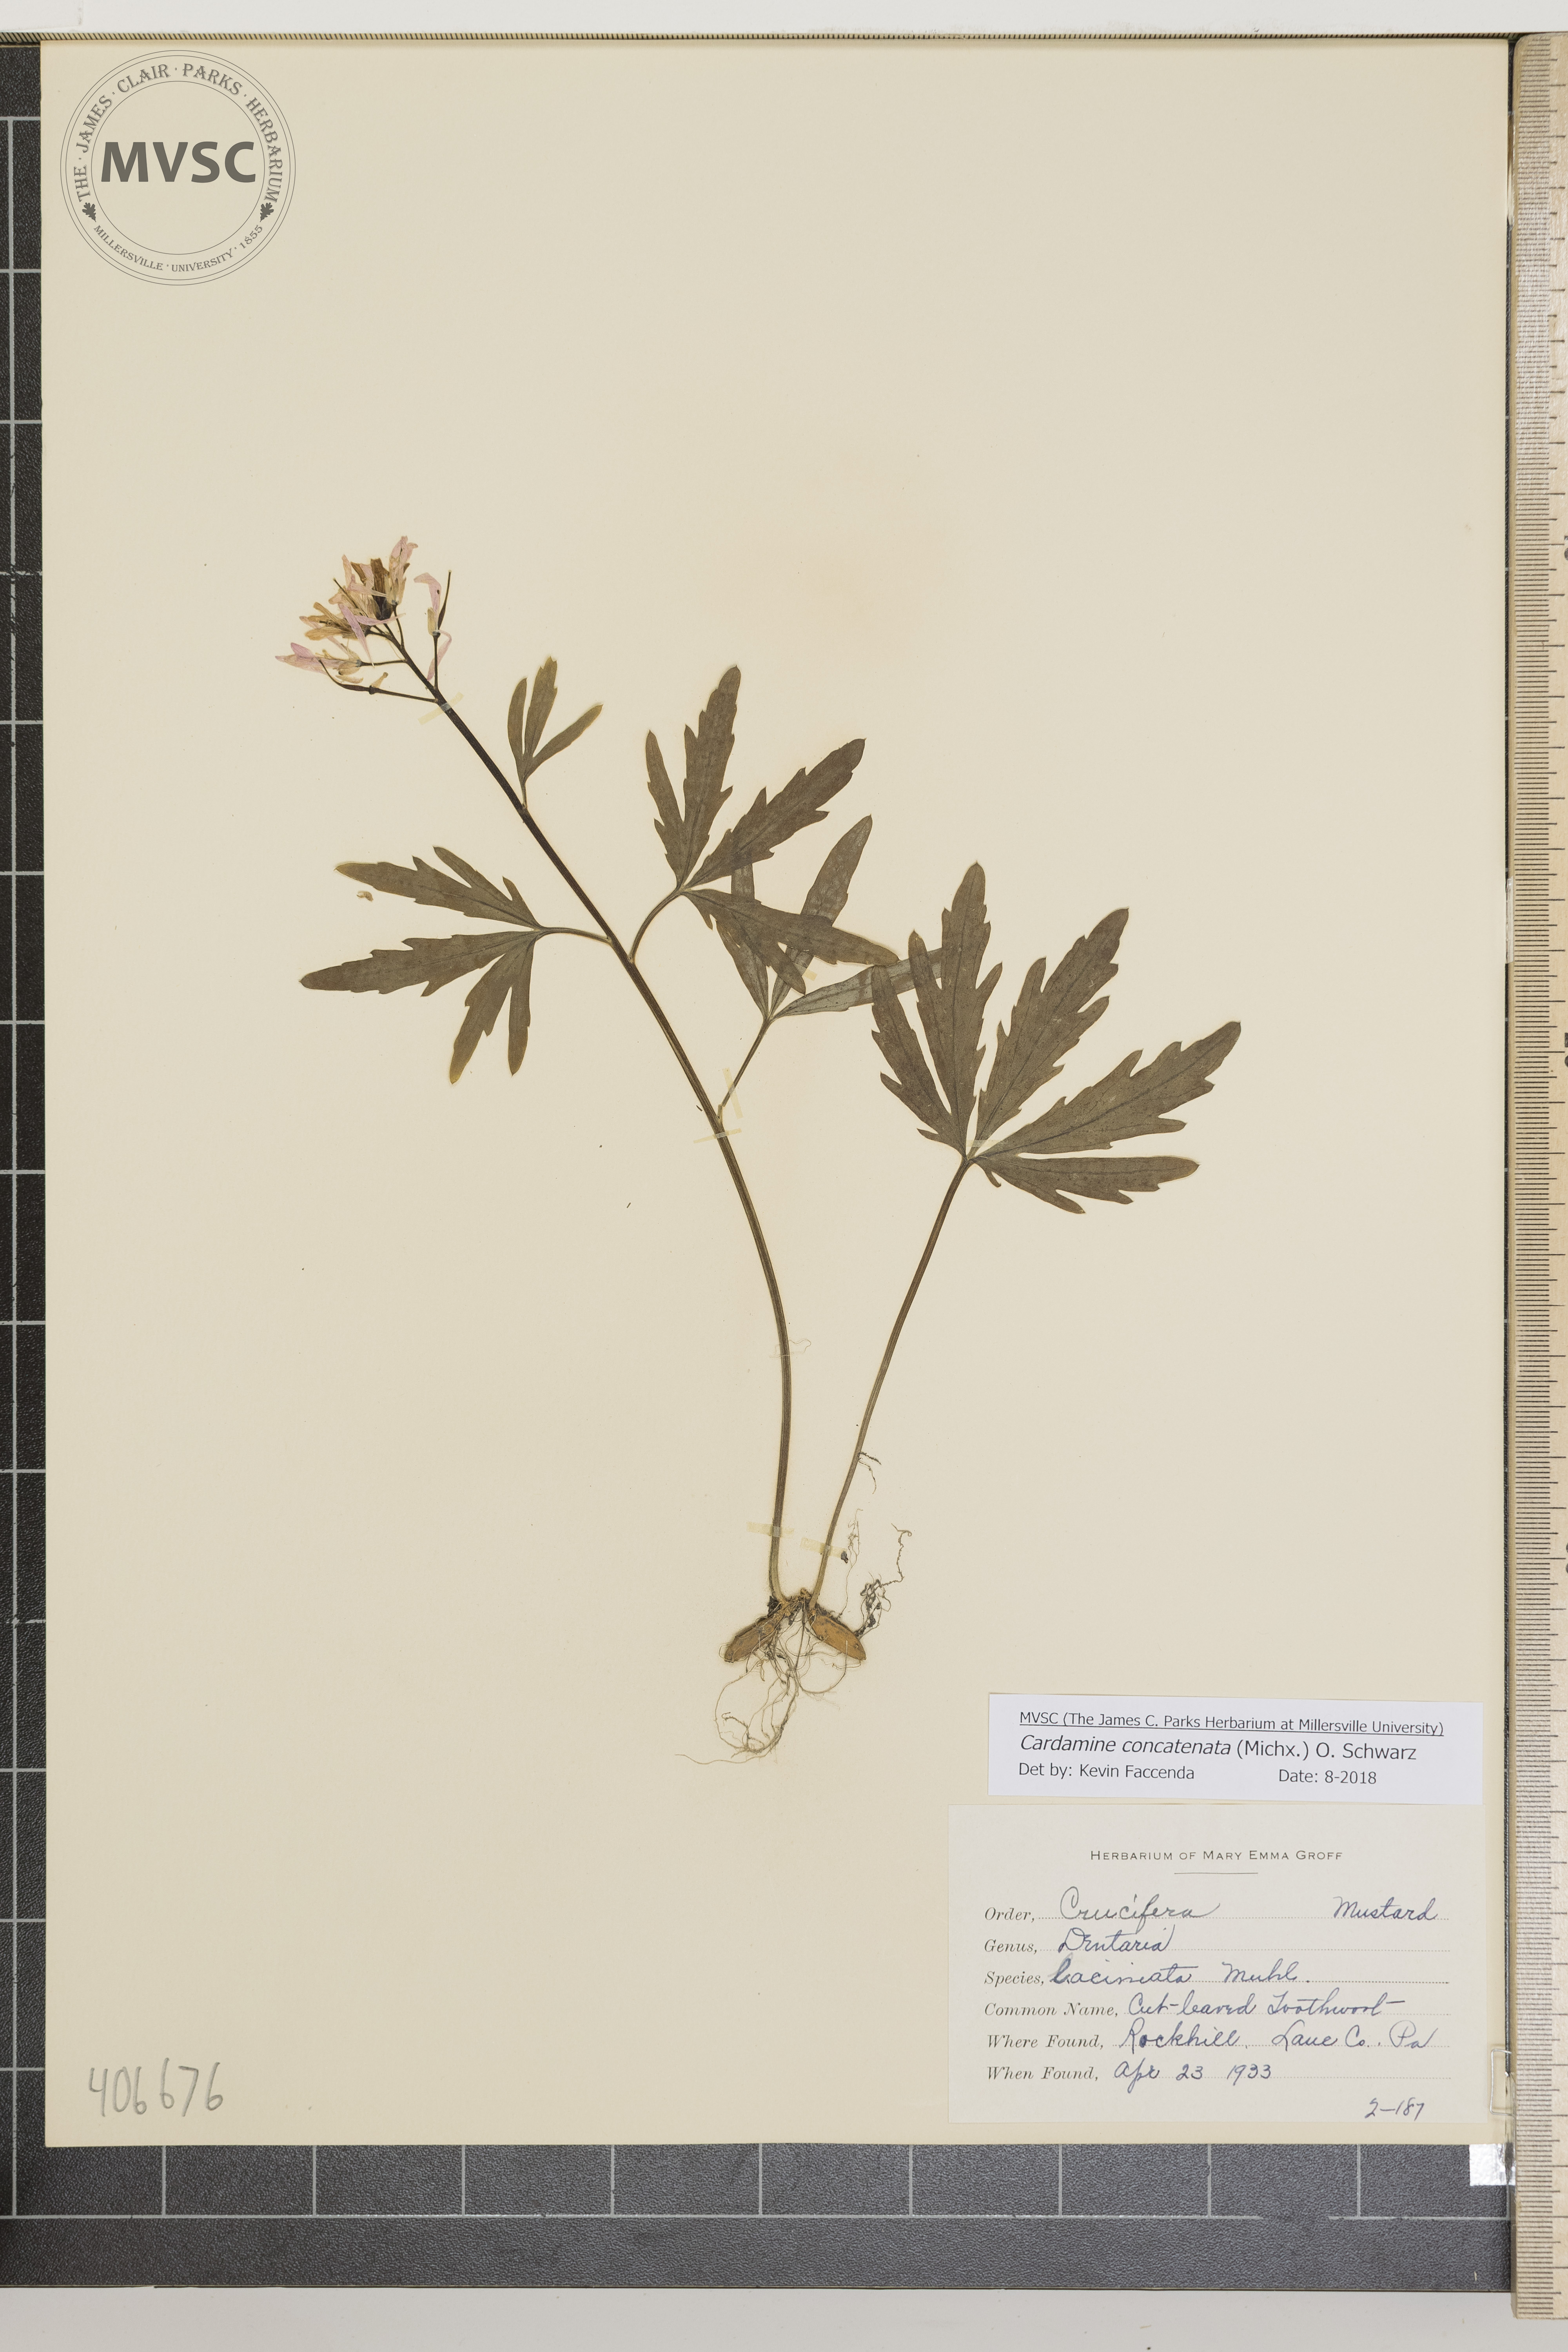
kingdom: Plantae
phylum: Tracheophyta
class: Magnoliopsida
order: Brassicales
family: Brassicaceae
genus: Cardamine
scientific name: Cardamine concatenata
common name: Cut-leaved Toothwort
